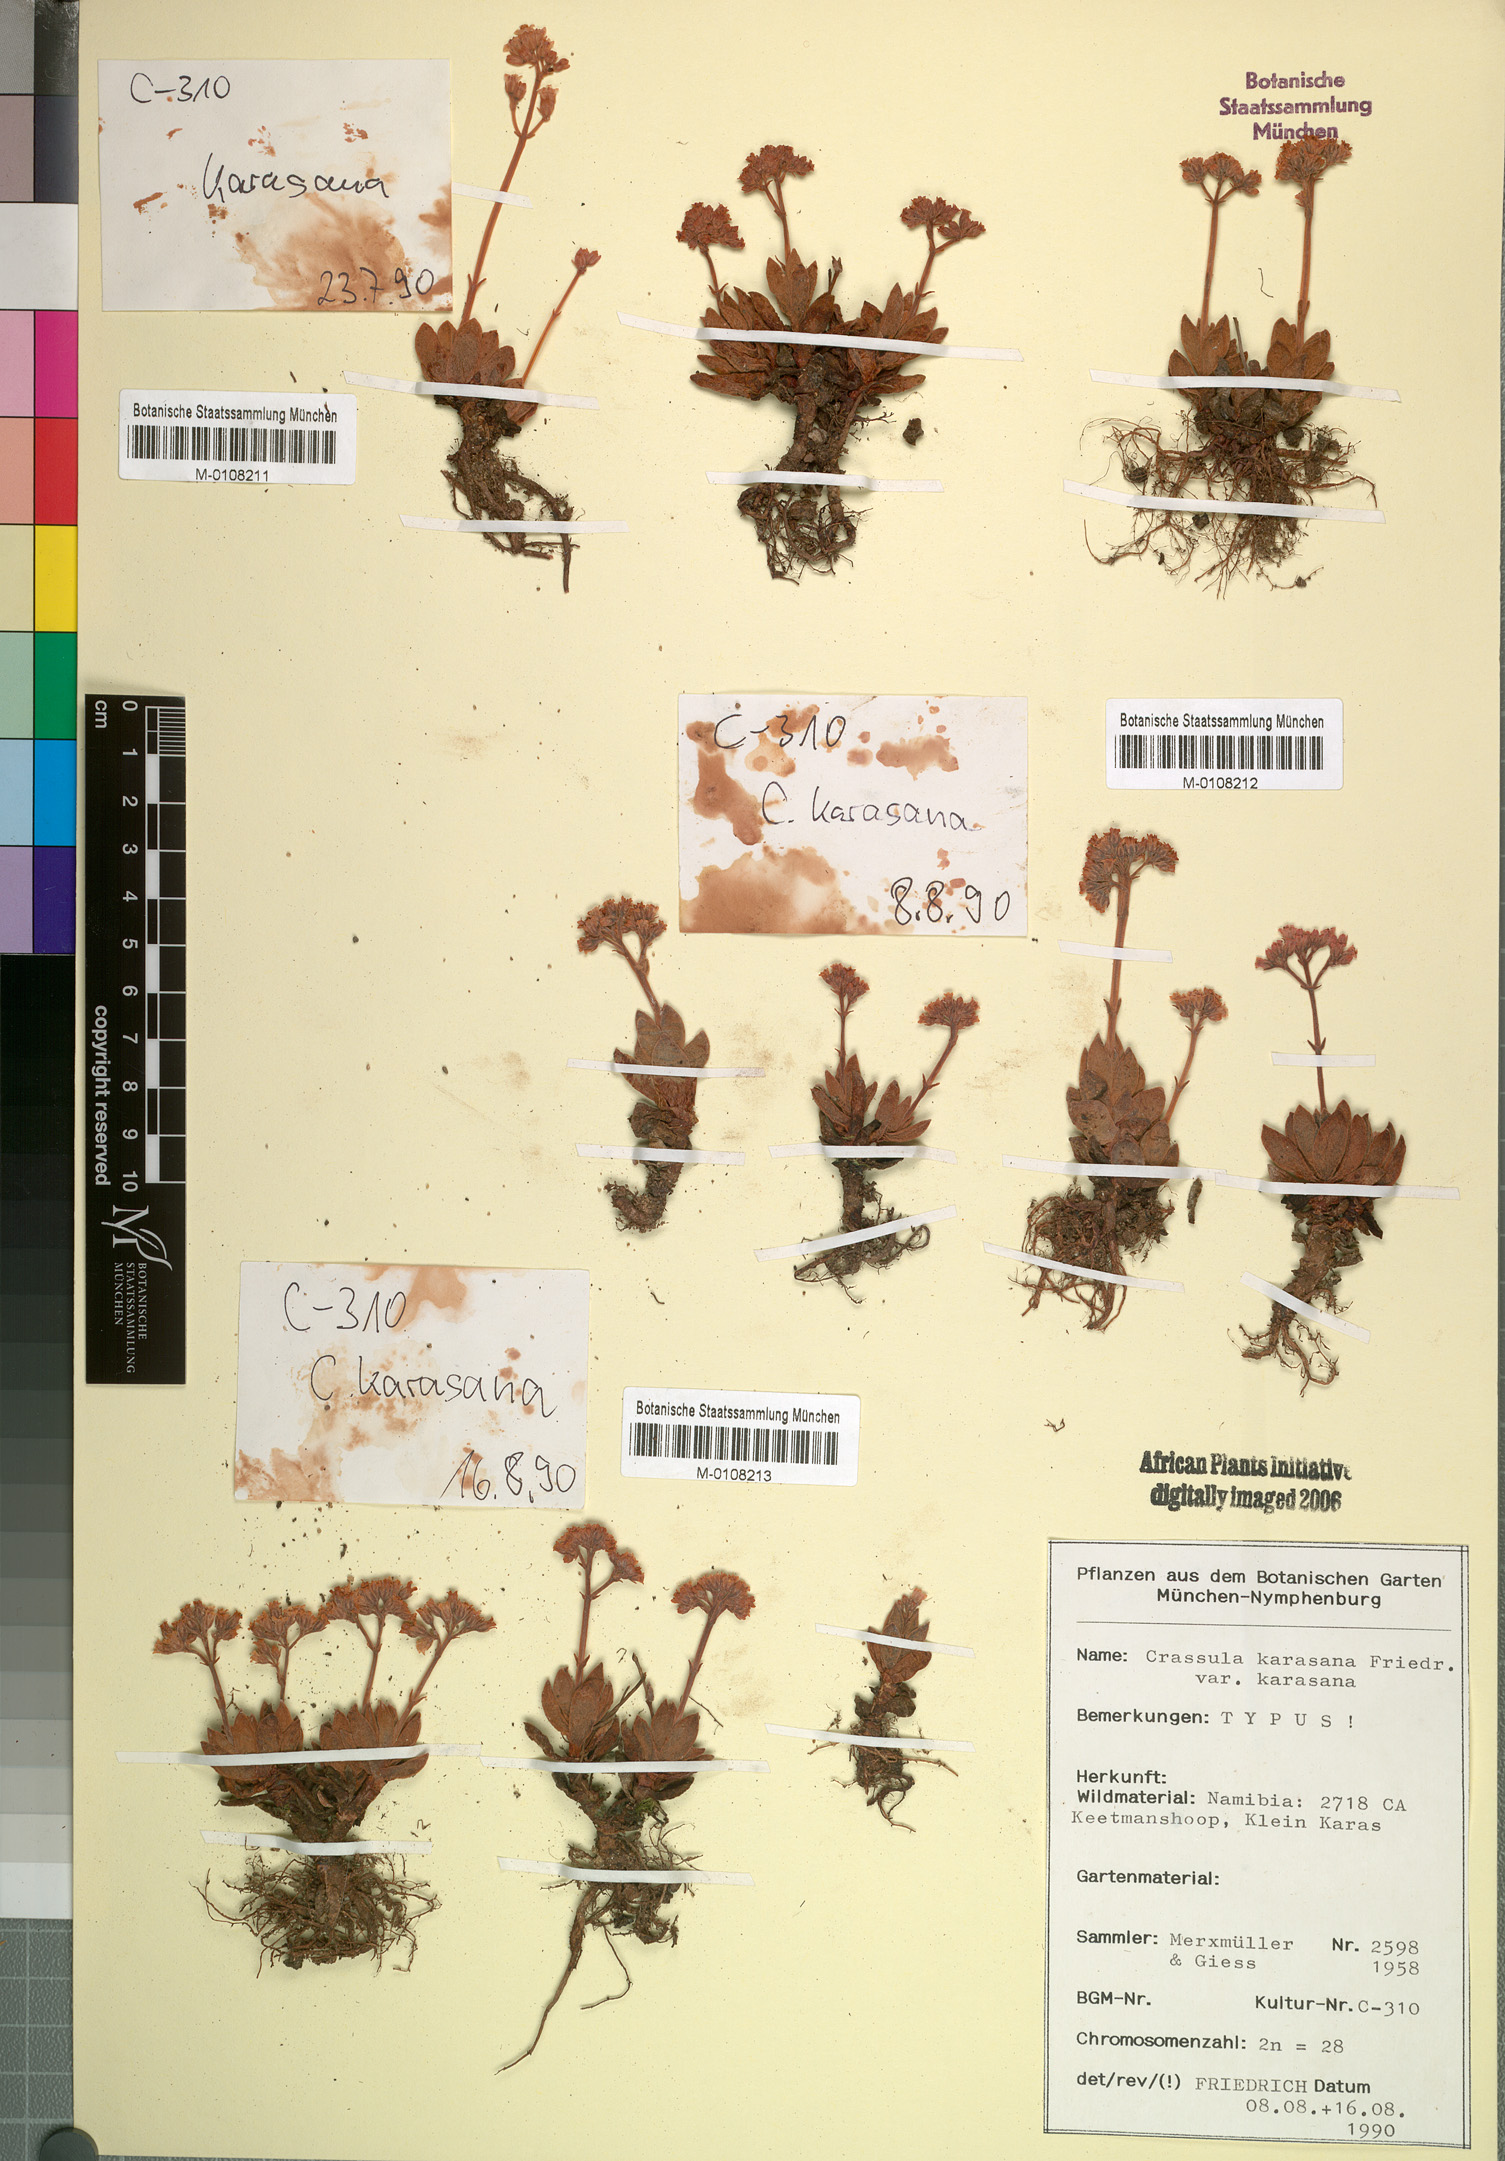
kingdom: Plantae
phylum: Tracheophyta
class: Magnoliopsida
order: Saxifragales
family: Crassulaceae
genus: Crassula
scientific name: Crassula ausensis
